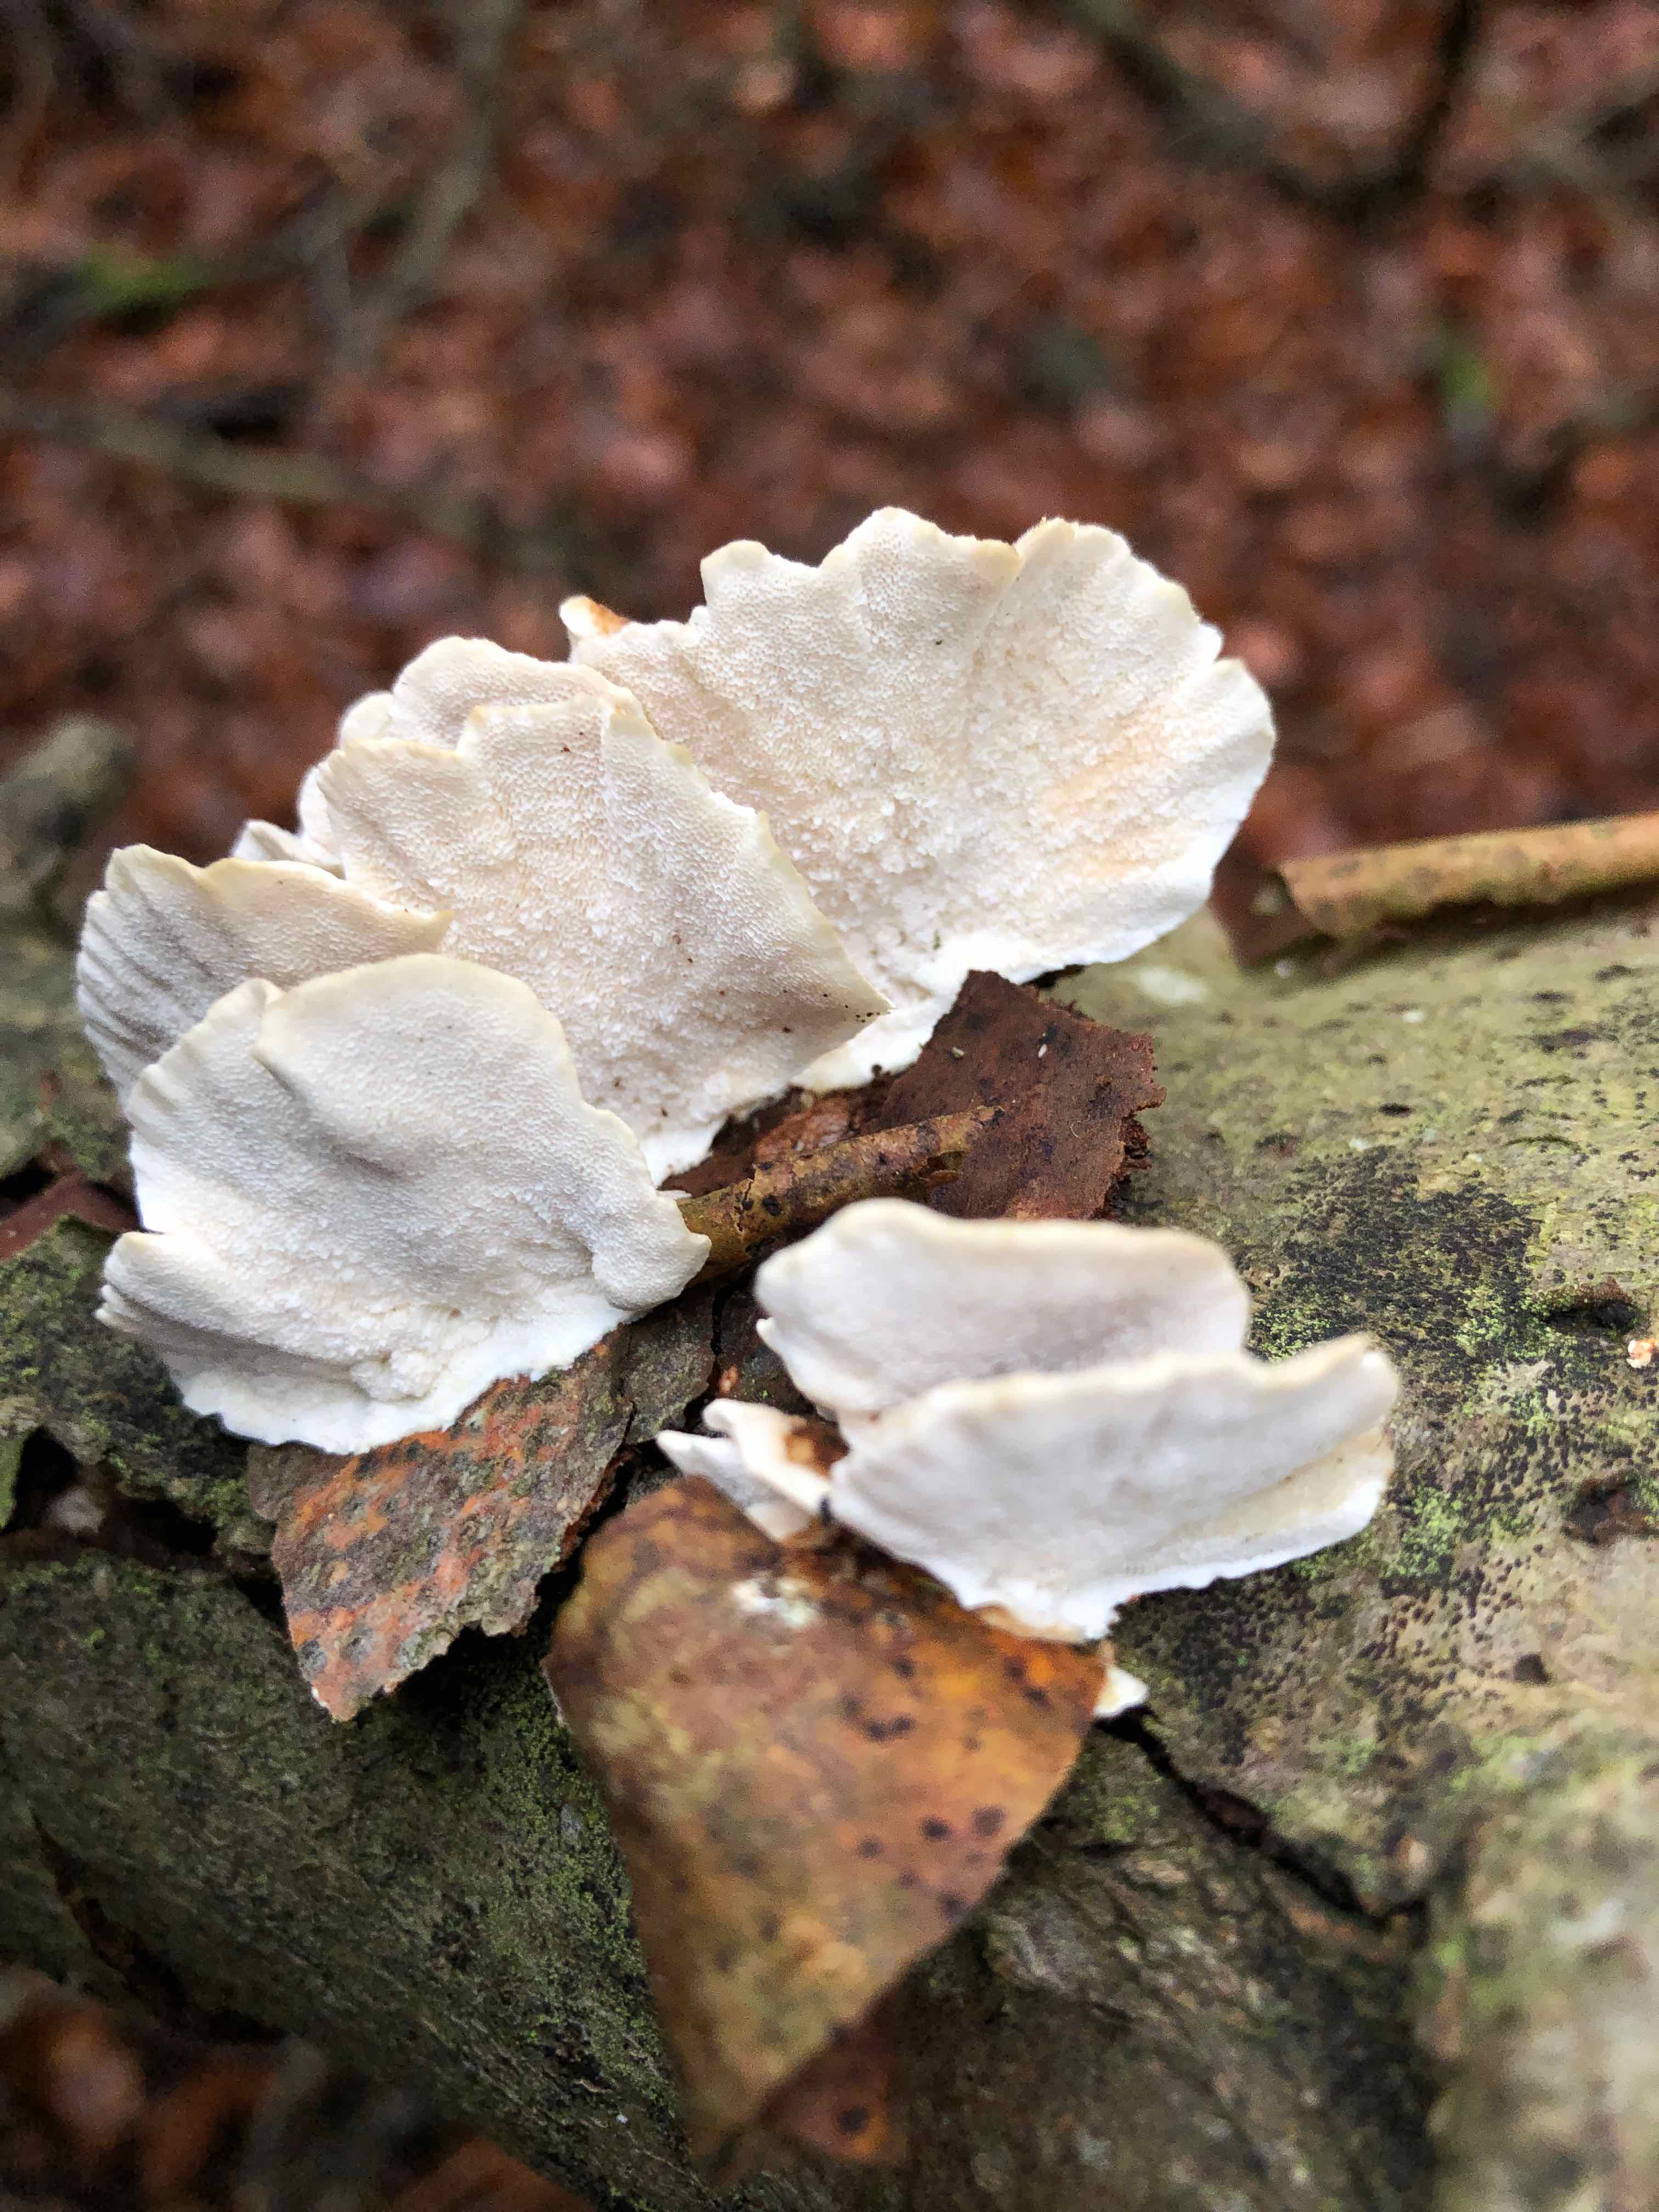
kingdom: Fungi
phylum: Basidiomycota
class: Agaricomycetes
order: Polyporales
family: Polyporaceae
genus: Trametes
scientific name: Trametes versicolor
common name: broget læderporesvamp
